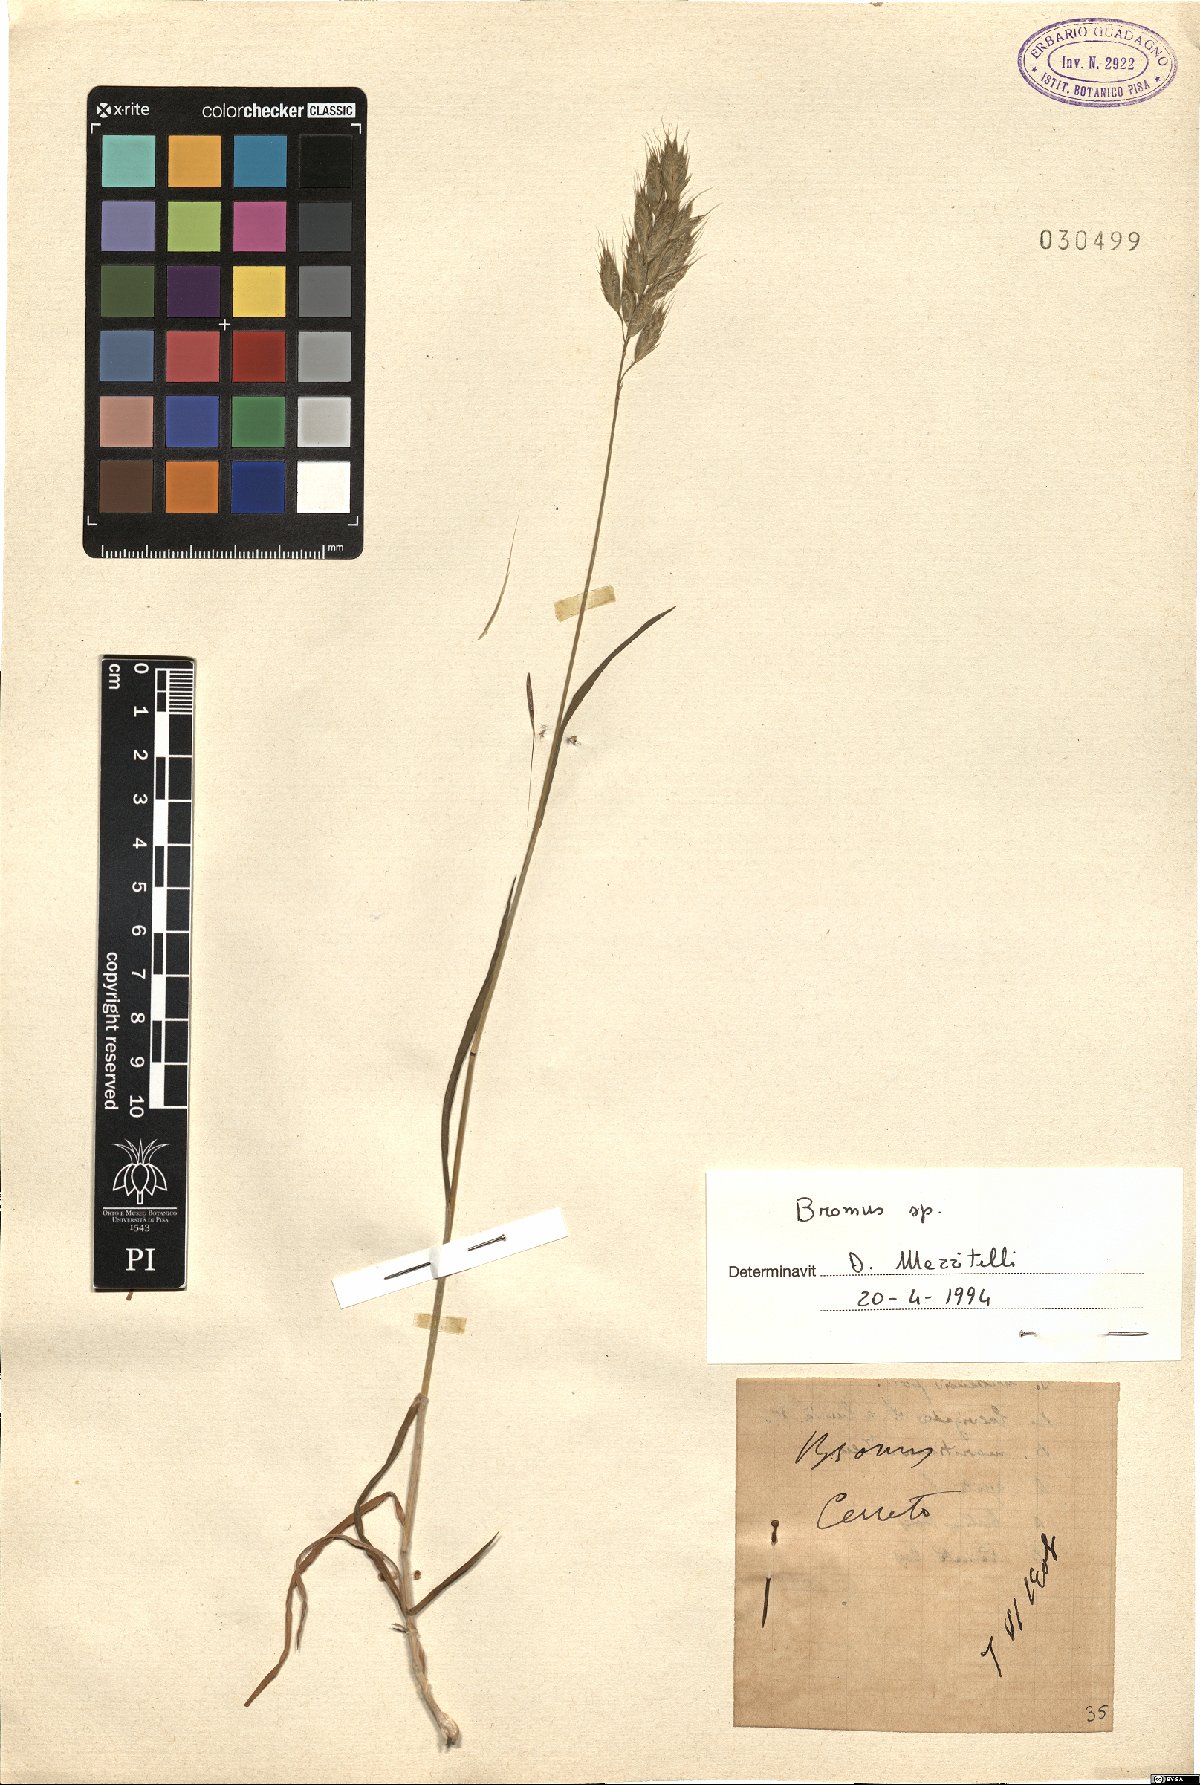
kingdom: Plantae
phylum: Tracheophyta
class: Liliopsida
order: Poales
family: Poaceae
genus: Bromus
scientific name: Bromus
